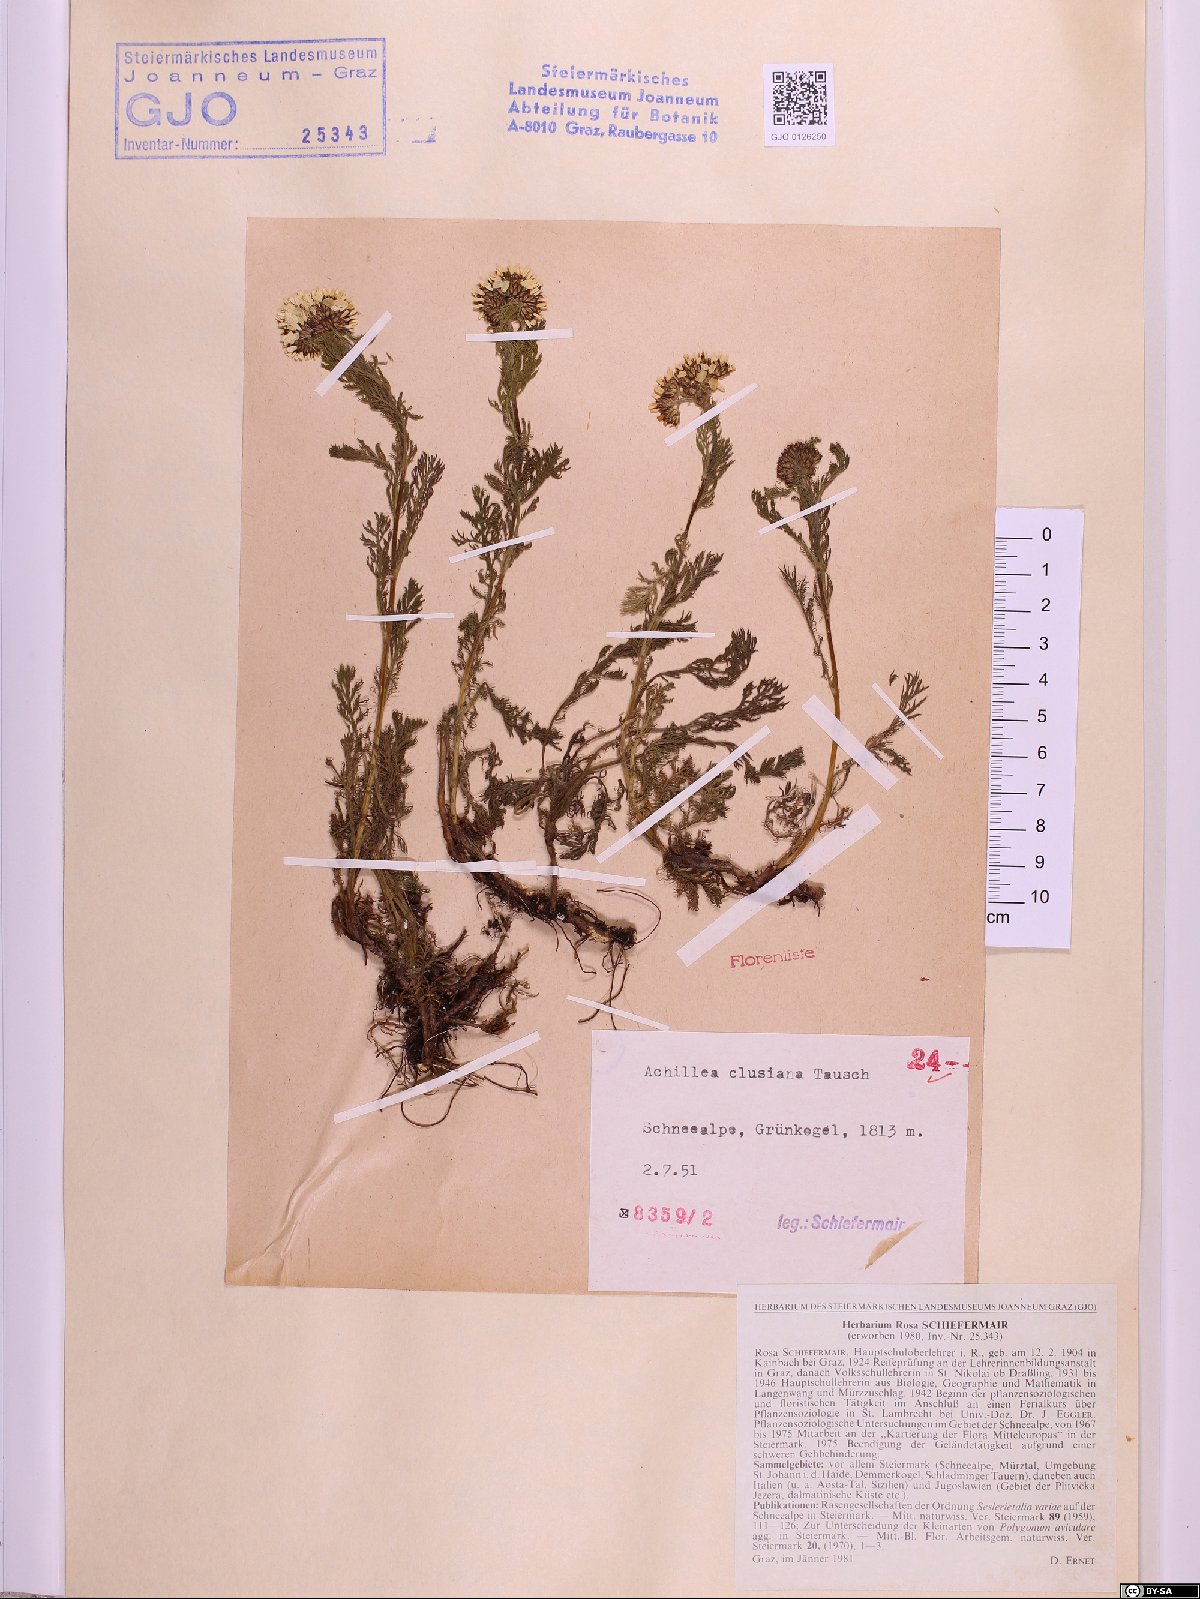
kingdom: Plantae
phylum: Tracheophyta
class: Magnoliopsida
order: Asterales
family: Asteraceae
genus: Achillea
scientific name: Achillea clusiana
